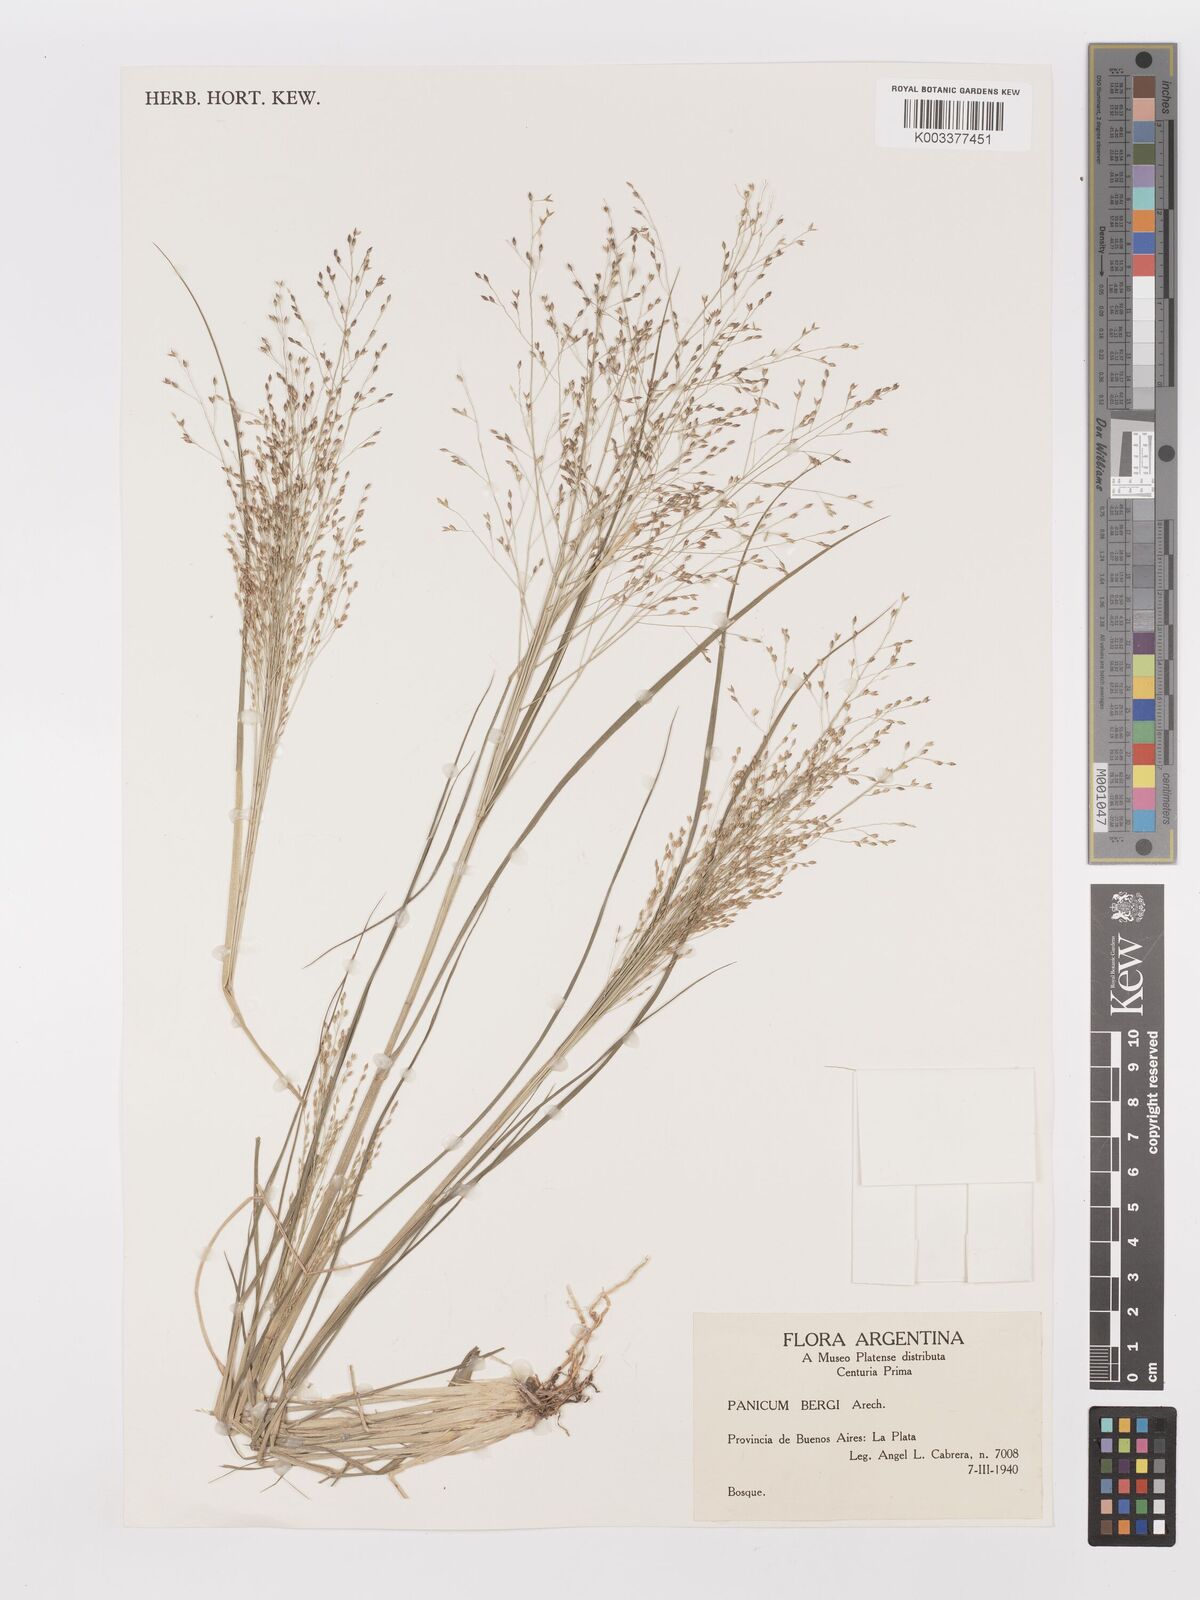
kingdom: Plantae
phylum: Tracheophyta
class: Liliopsida
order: Poales
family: Poaceae
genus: Panicum
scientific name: Panicum bergii
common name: Berg's panicgrass
